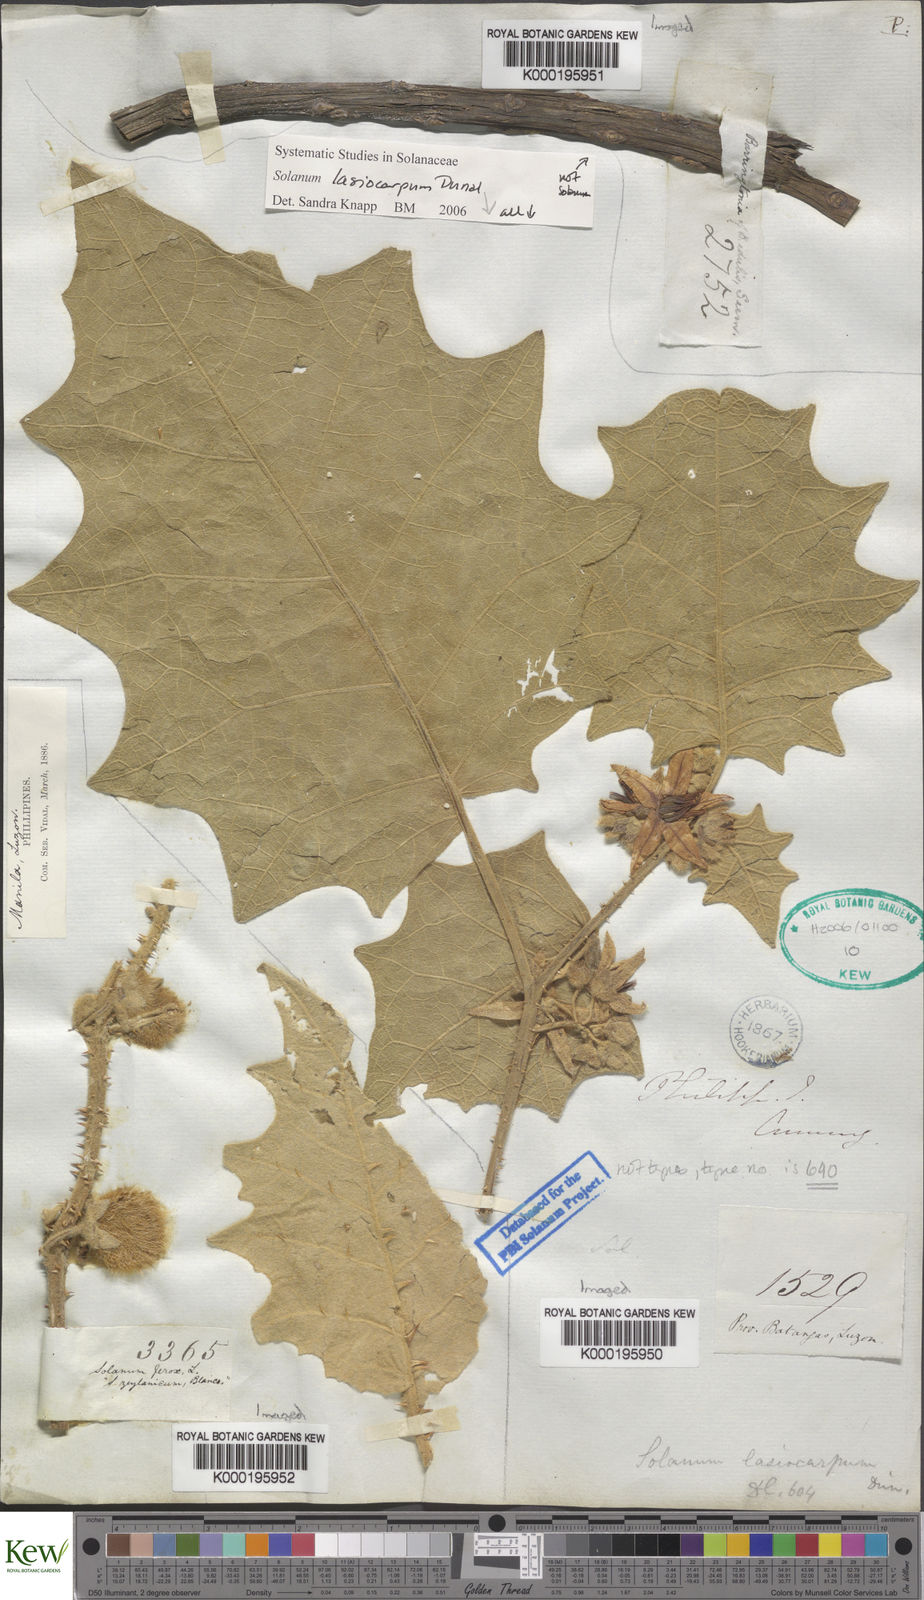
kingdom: Plantae
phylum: Tracheophyta
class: Magnoliopsida
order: Solanales
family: Solanaceae
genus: Solanum
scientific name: Solanum lasiocarpum
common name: Indian nightshade
